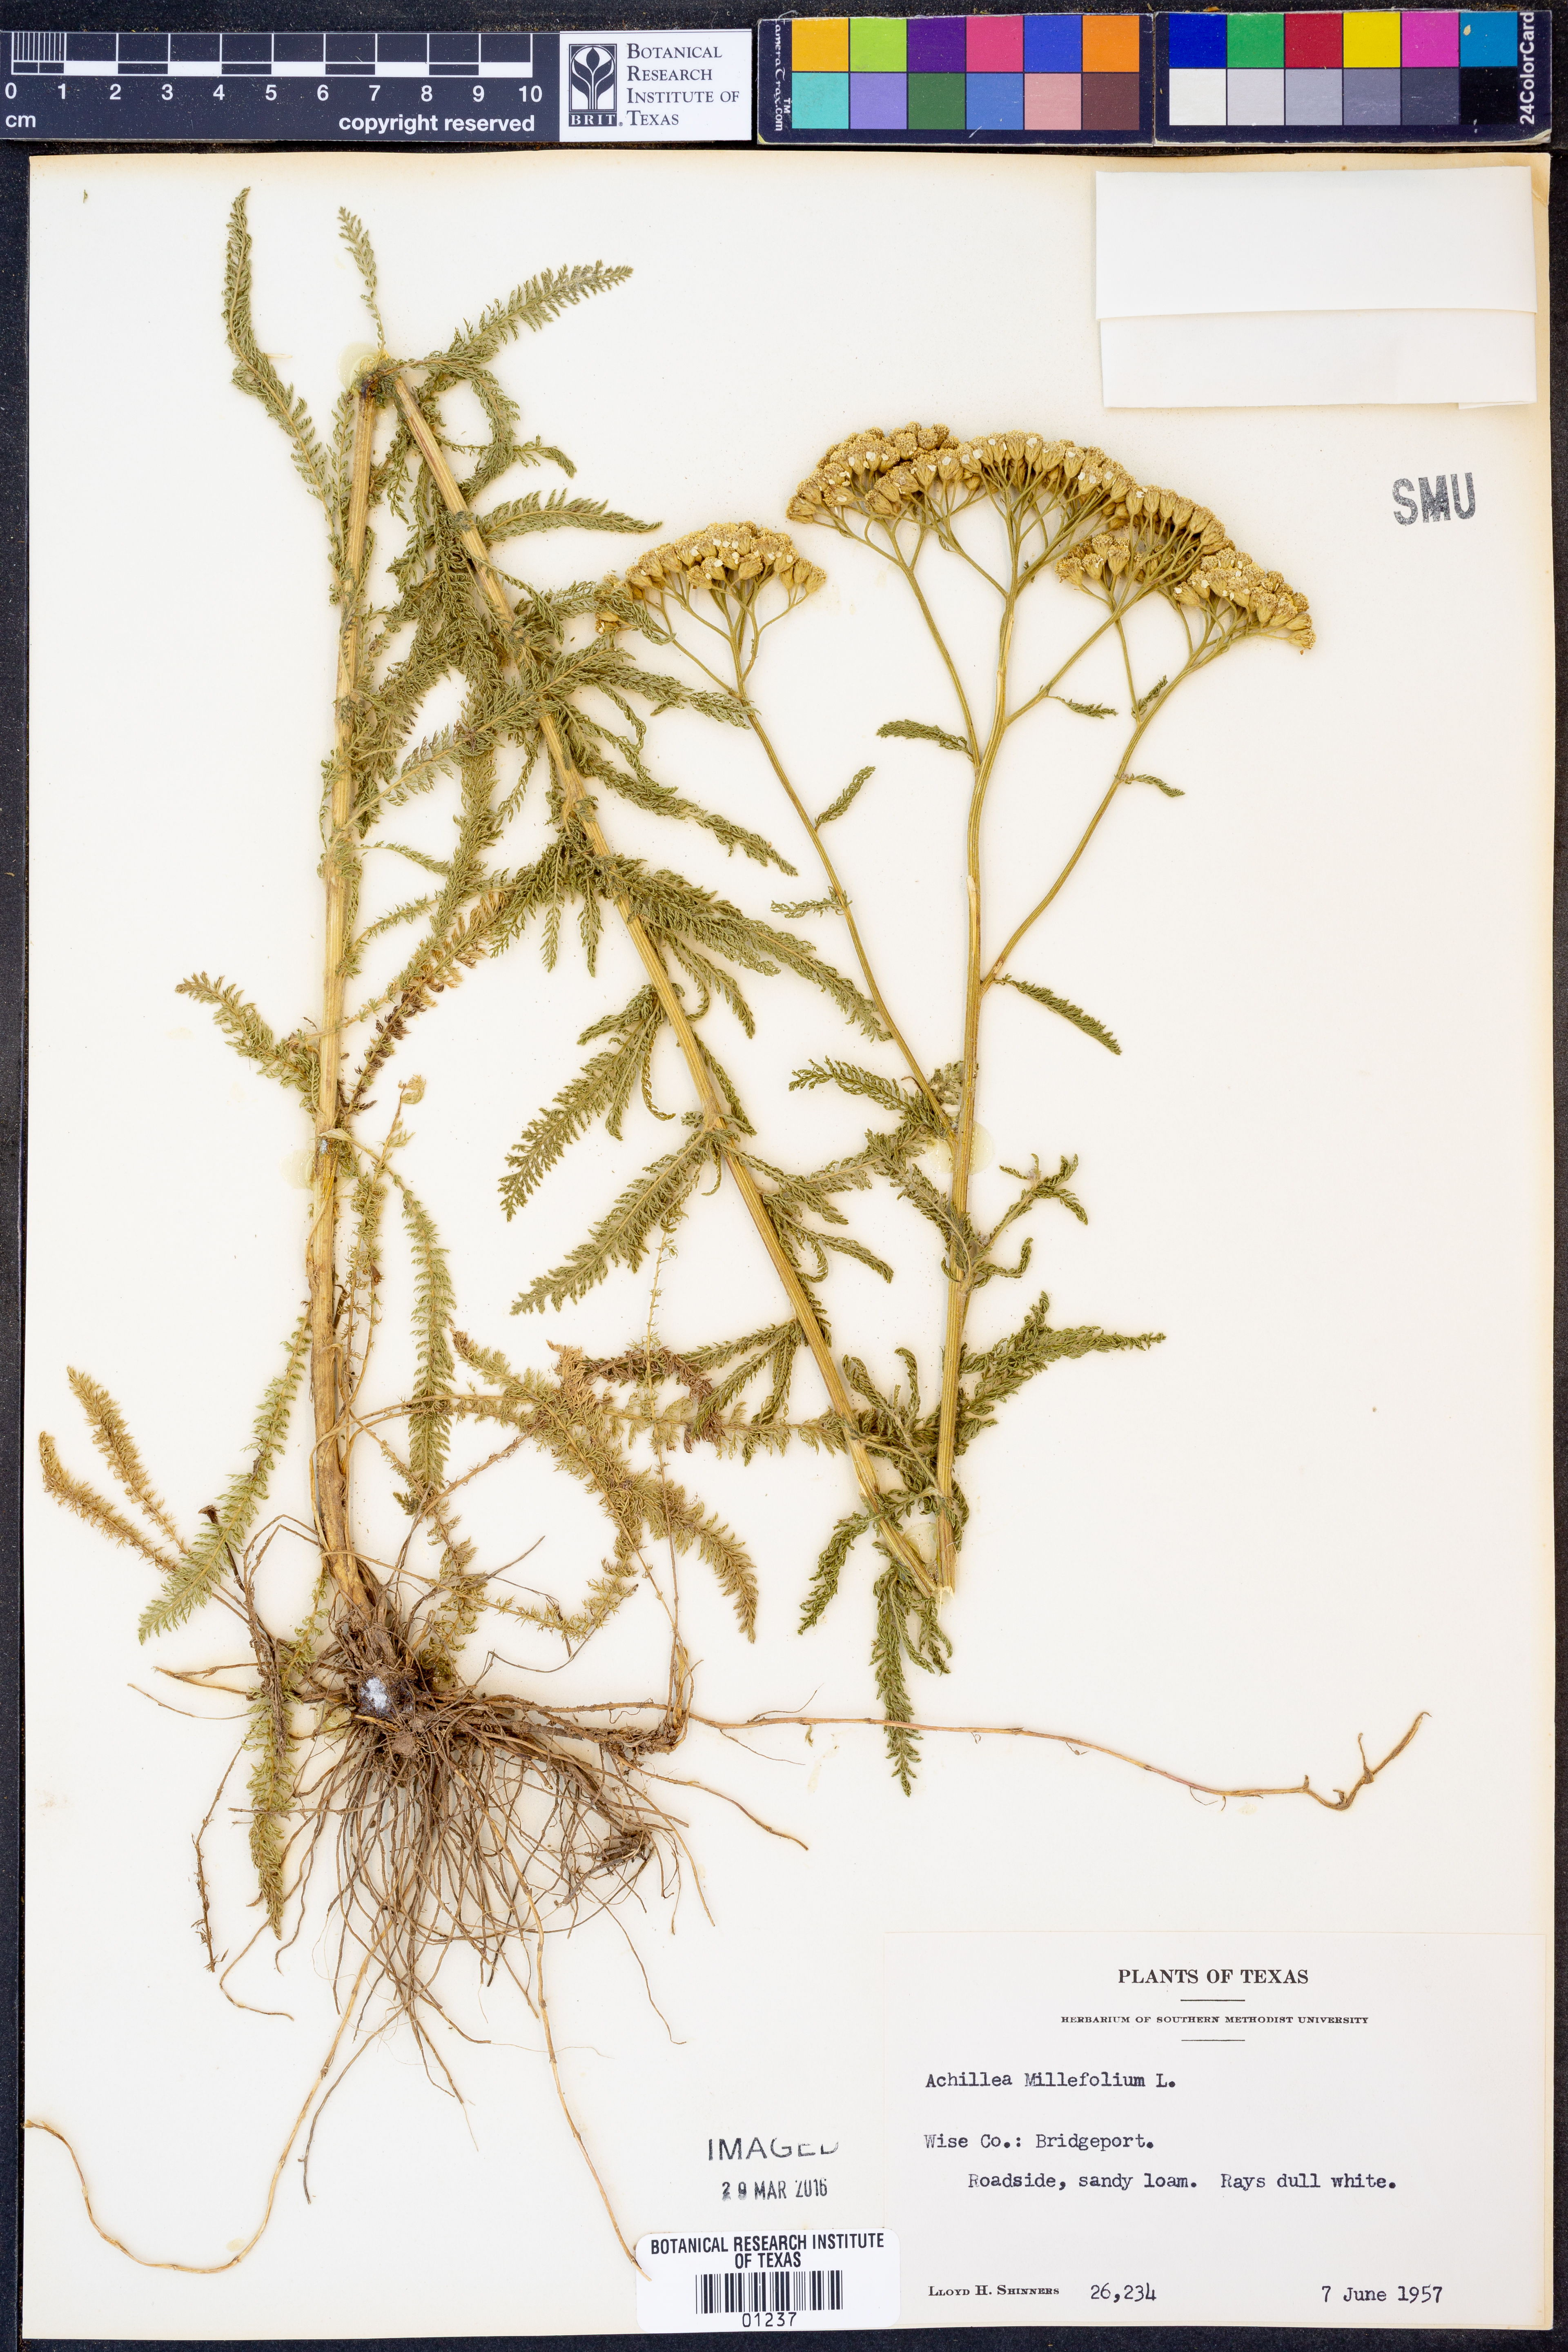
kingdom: Plantae
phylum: Tracheophyta
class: Magnoliopsida
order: Asterales
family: Asteraceae
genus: Achillea
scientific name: Achillea millefolium
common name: Yarrow
